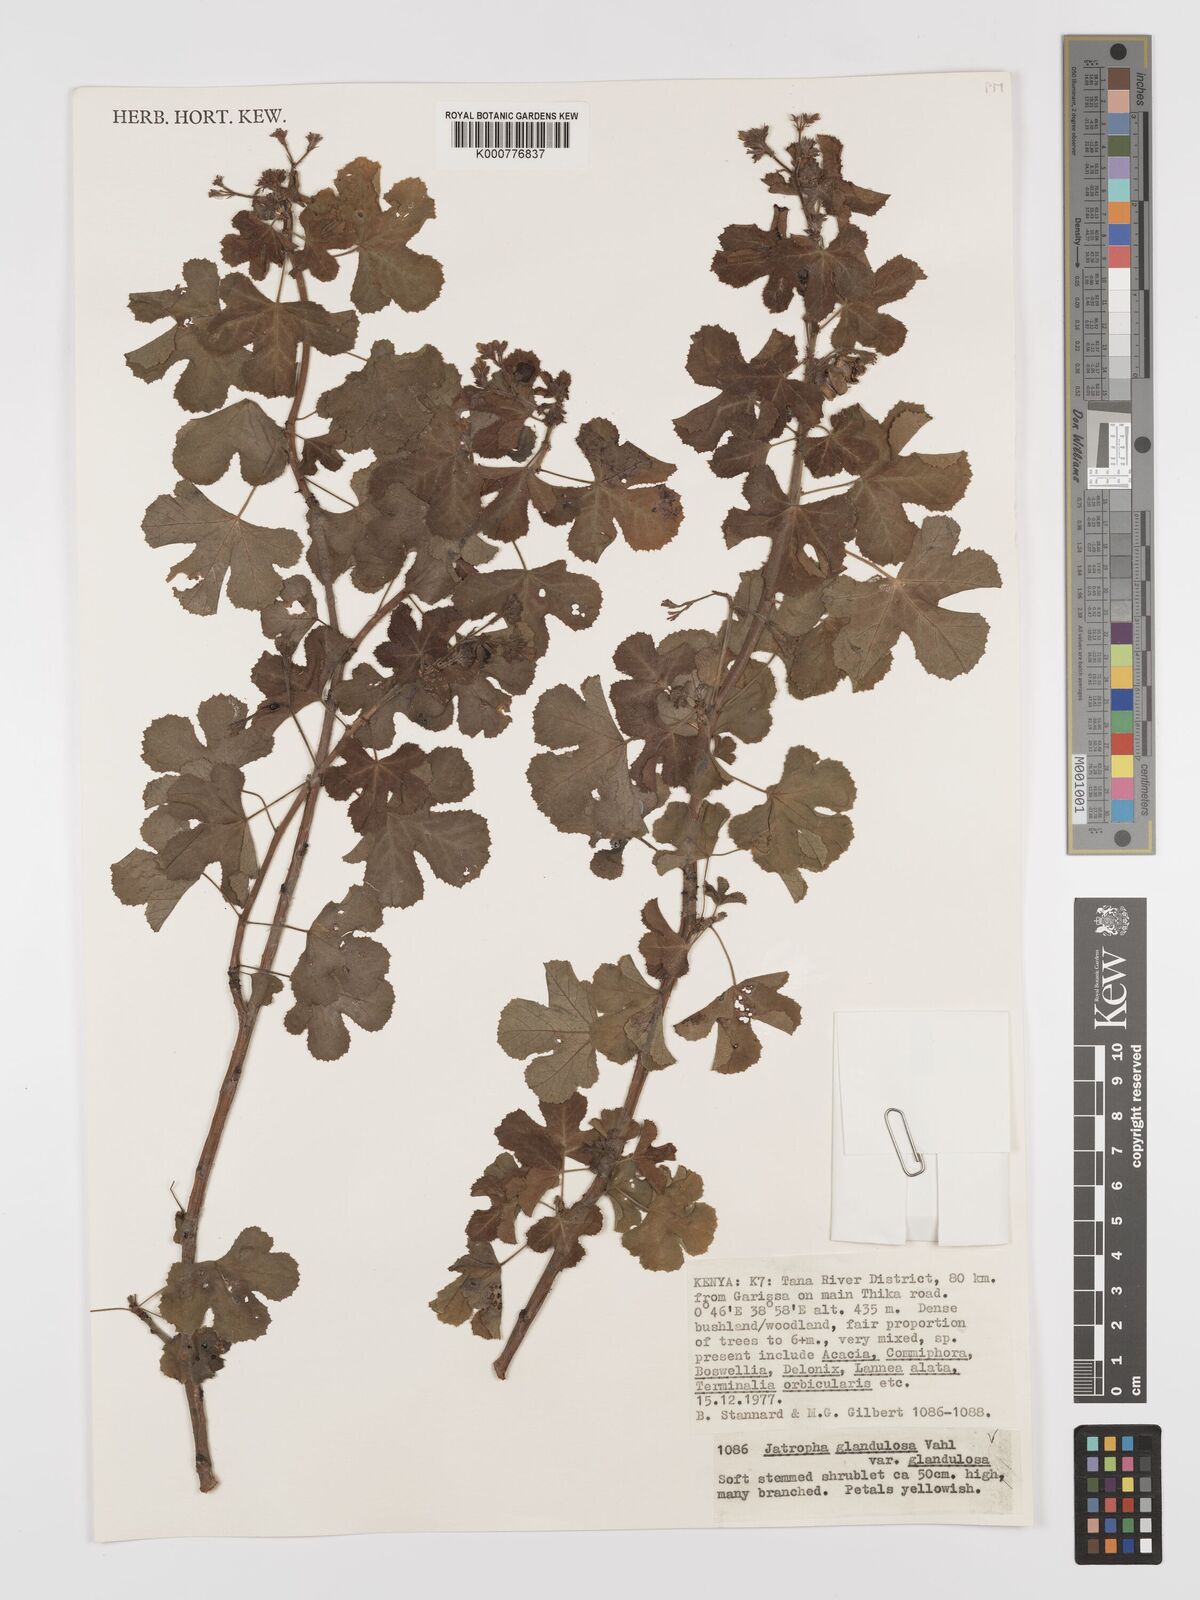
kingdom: Plantae
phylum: Tracheophyta
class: Magnoliopsida
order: Malpighiales
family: Euphorbiaceae
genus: Jatropha
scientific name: Jatropha pelargoniifolia
